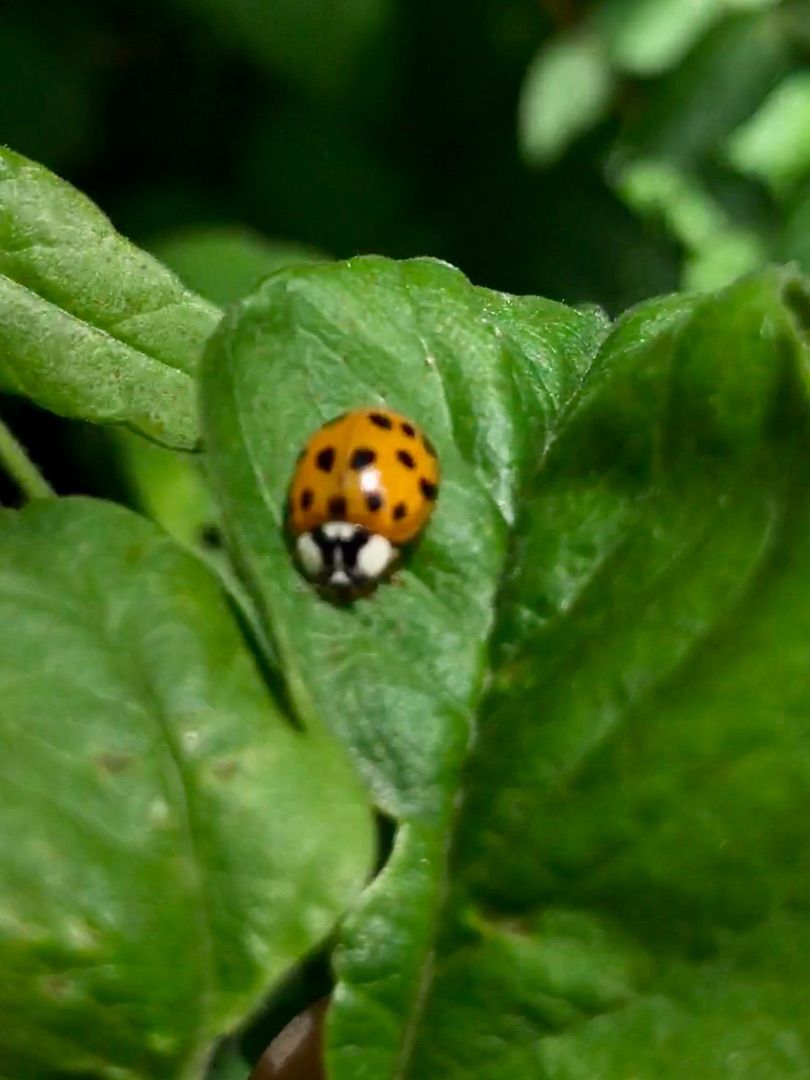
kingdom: Animalia
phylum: Arthropoda
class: Insecta
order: Coleoptera
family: Coccinellidae
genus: Harmonia
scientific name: Harmonia axyridis
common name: Harlekinmariehøne
